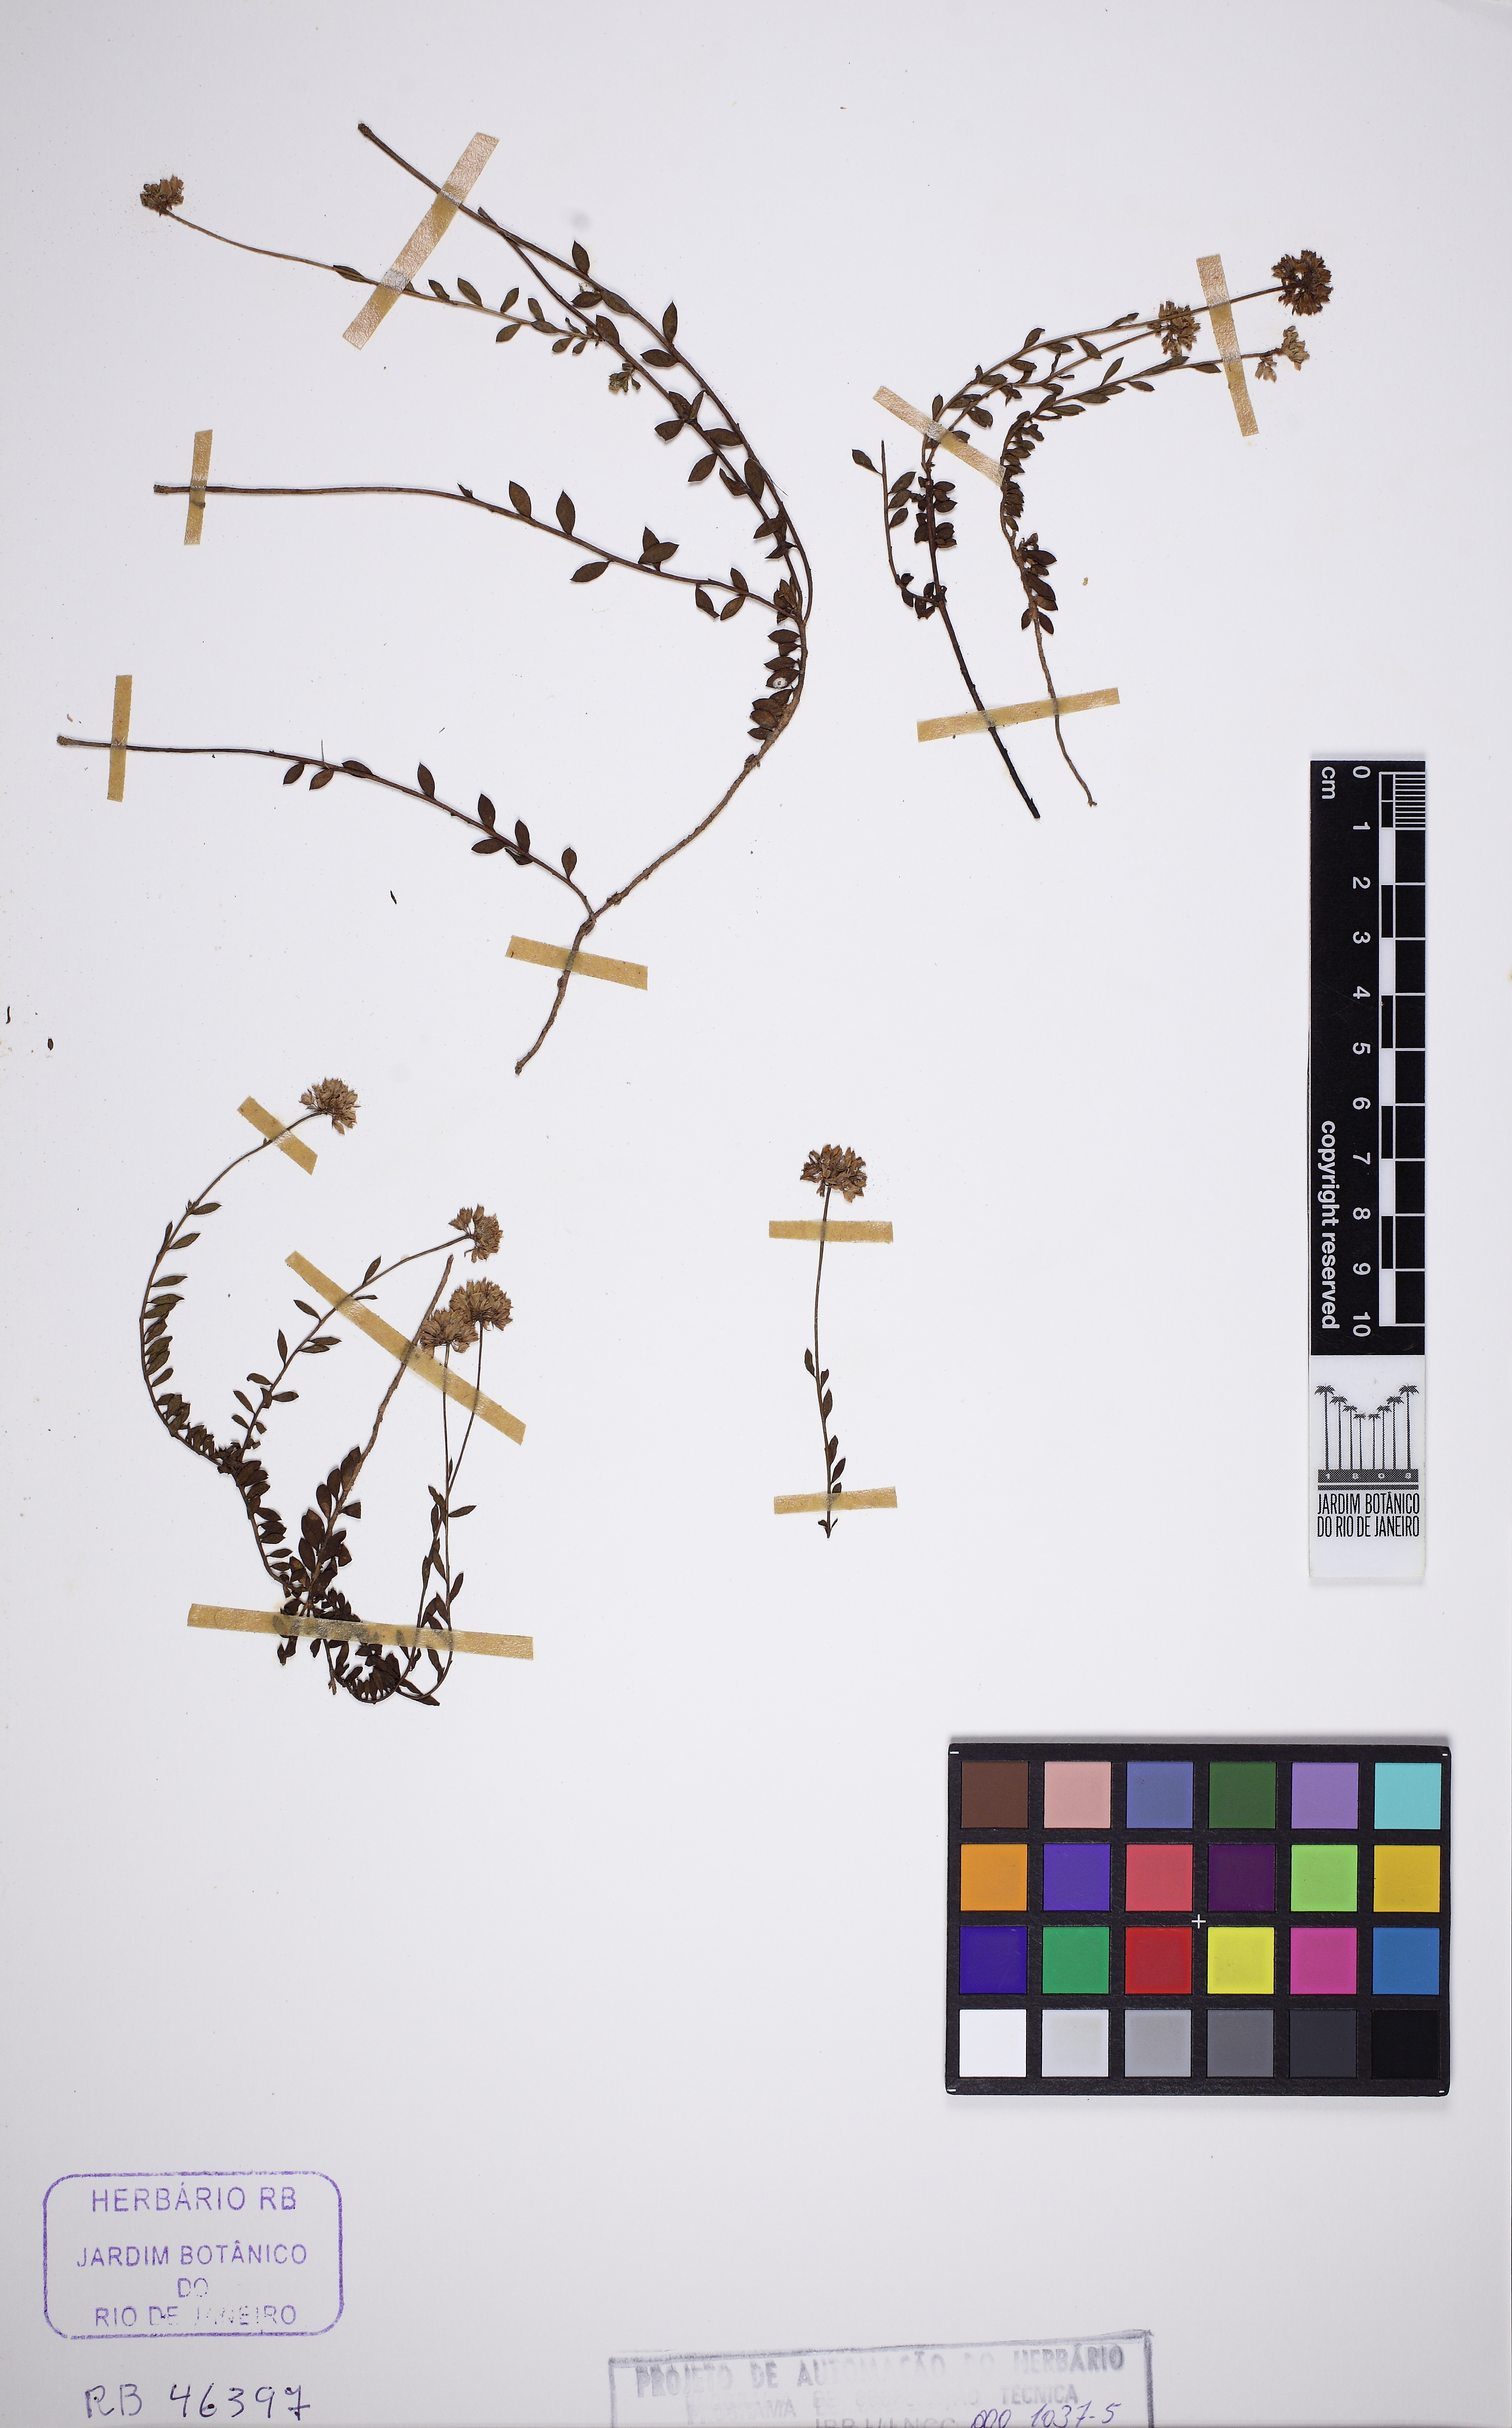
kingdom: Plantae
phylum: Tracheophyta
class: Magnoliopsida
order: Fabales
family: Polygalaceae
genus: Polygala
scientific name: Polygala moquiniana
